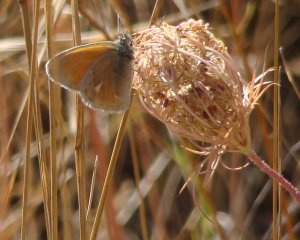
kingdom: Animalia
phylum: Arthropoda
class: Insecta
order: Lepidoptera
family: Nymphalidae
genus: Coenonympha
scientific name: Coenonympha tullia
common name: Large Heath
